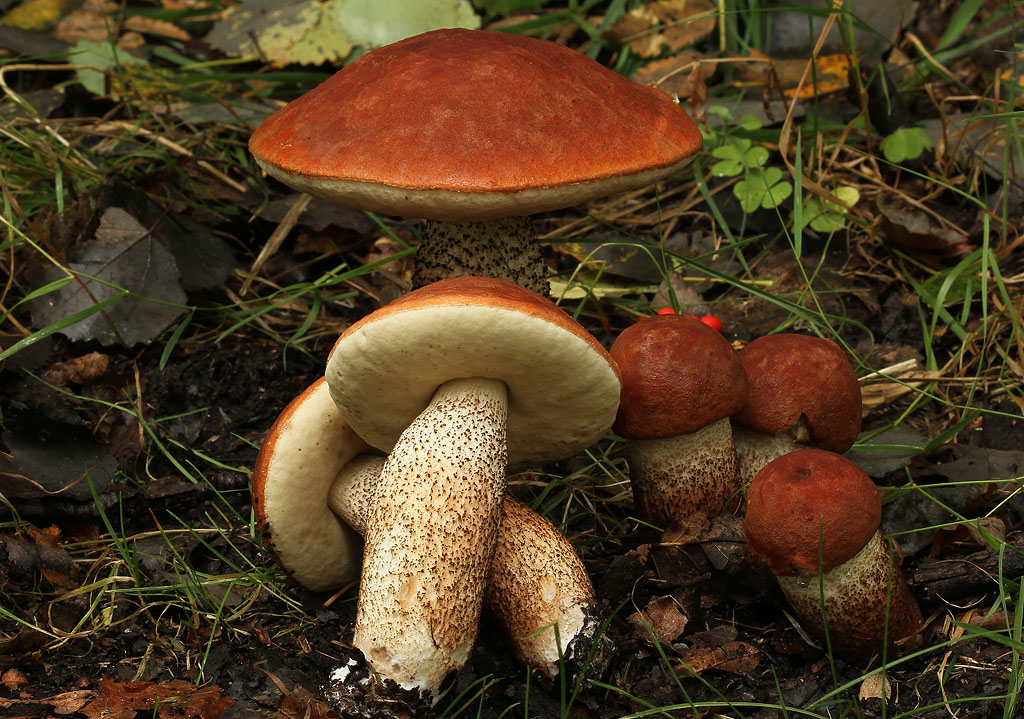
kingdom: Fungi
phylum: Basidiomycota
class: Agaricomycetes
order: Boletales
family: Boletaceae
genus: Leccinum
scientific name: Leccinum aurantiacum
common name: rustrød skælrørhat
